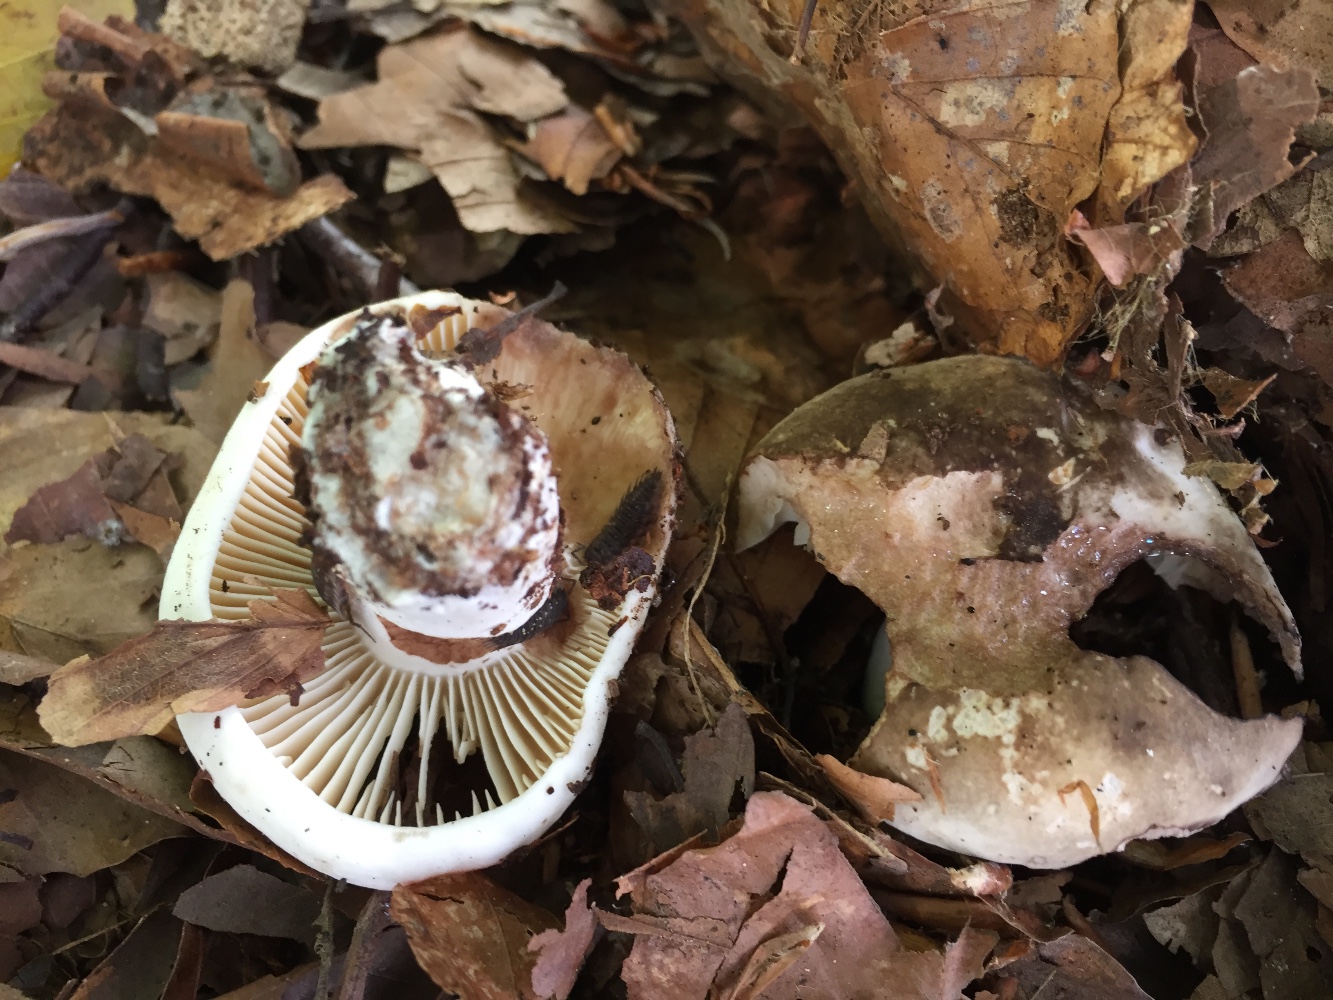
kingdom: Fungi
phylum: Basidiomycota
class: Agaricomycetes
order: Russulales
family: Russulaceae
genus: Russula
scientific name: Russula adusta
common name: sværtende skørhat
